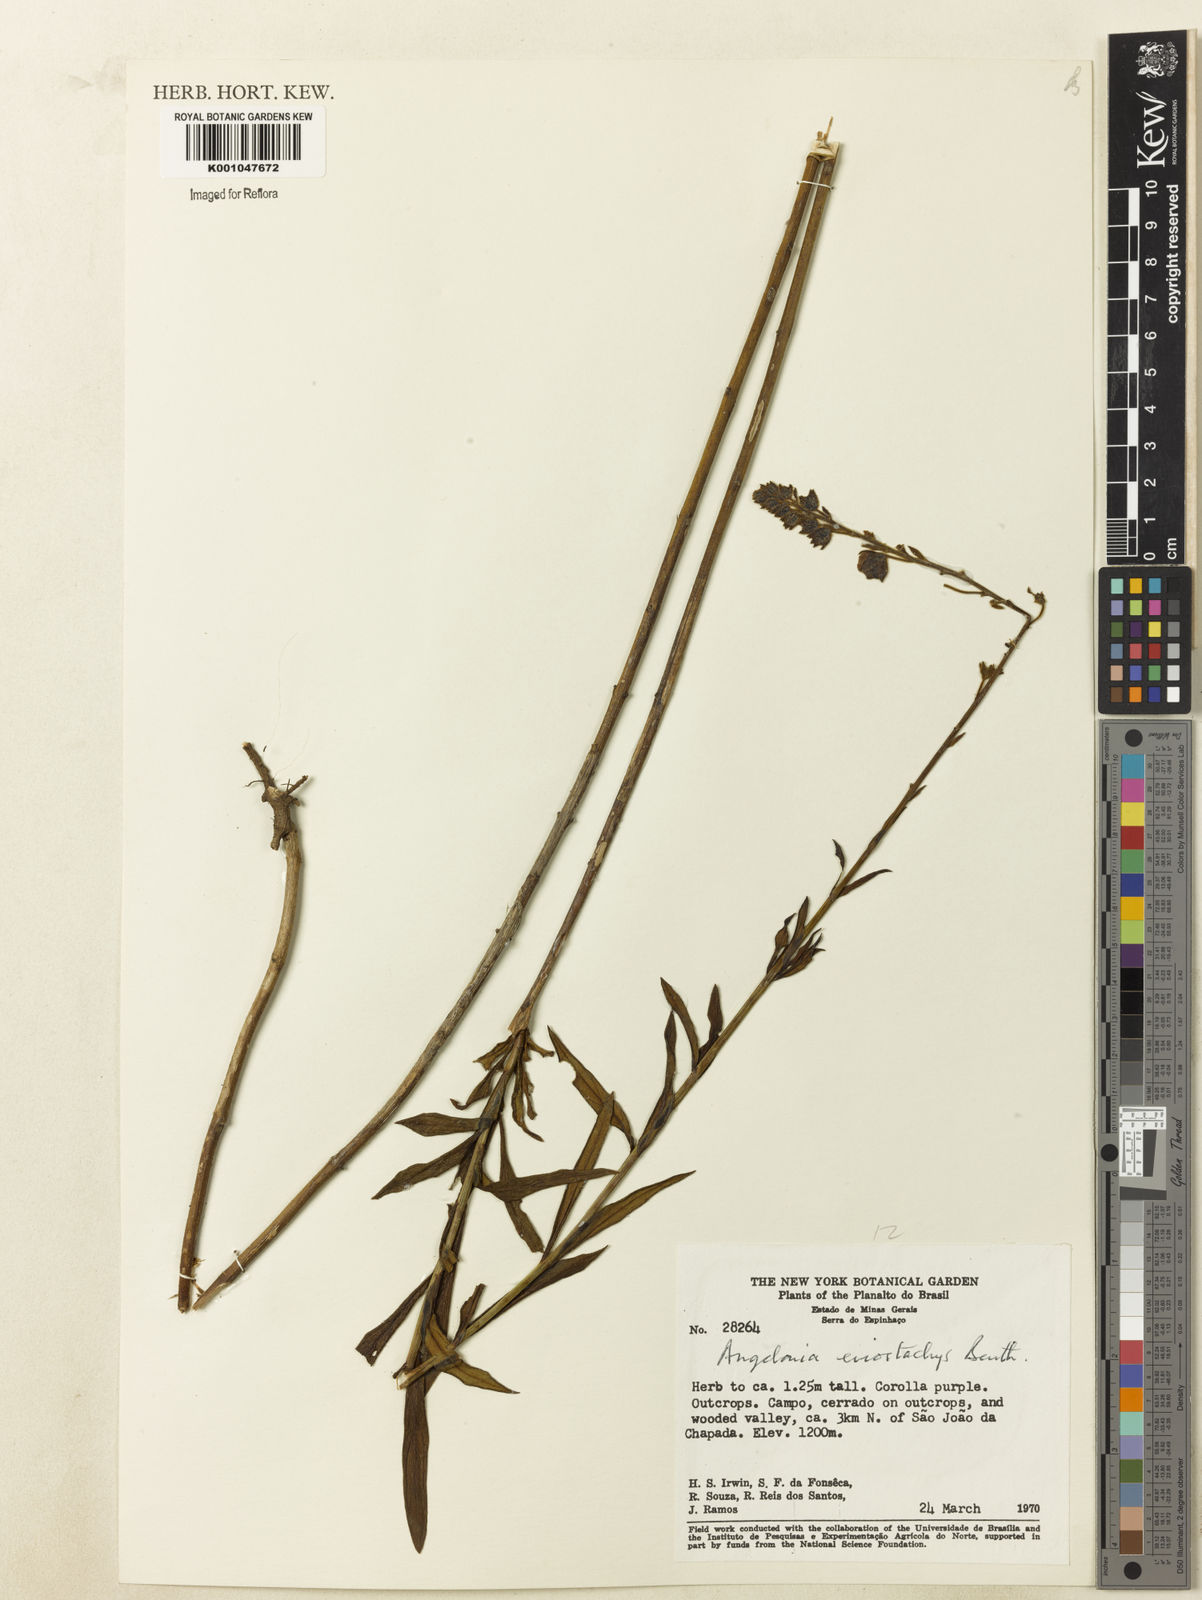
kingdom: Plantae
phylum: Tracheophyta
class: Magnoliopsida
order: Lamiales
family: Plantaginaceae
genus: Angelonia
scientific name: Angelonia eriostachys
